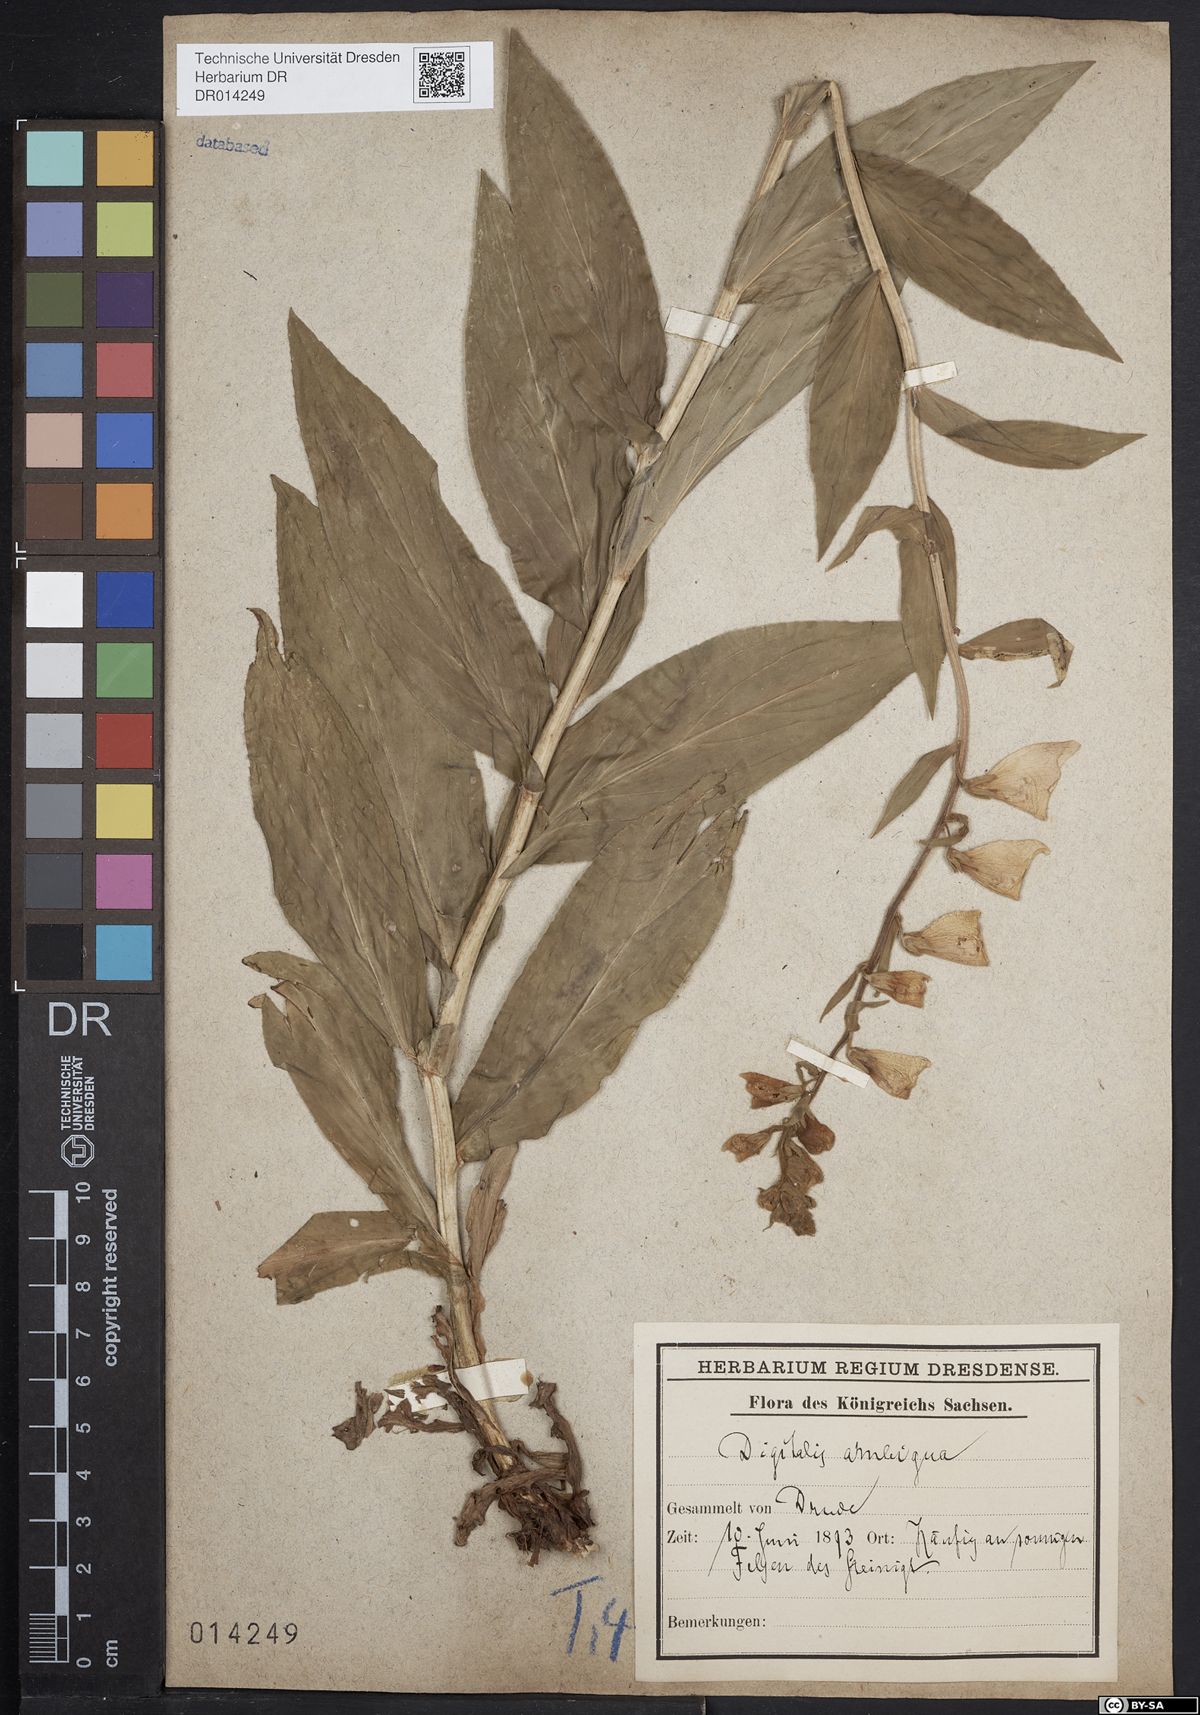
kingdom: Plantae
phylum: Tracheophyta
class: Magnoliopsida
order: Lamiales
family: Plantaginaceae
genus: Digitalis
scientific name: Digitalis grandiflora
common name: Yellow foxglove
